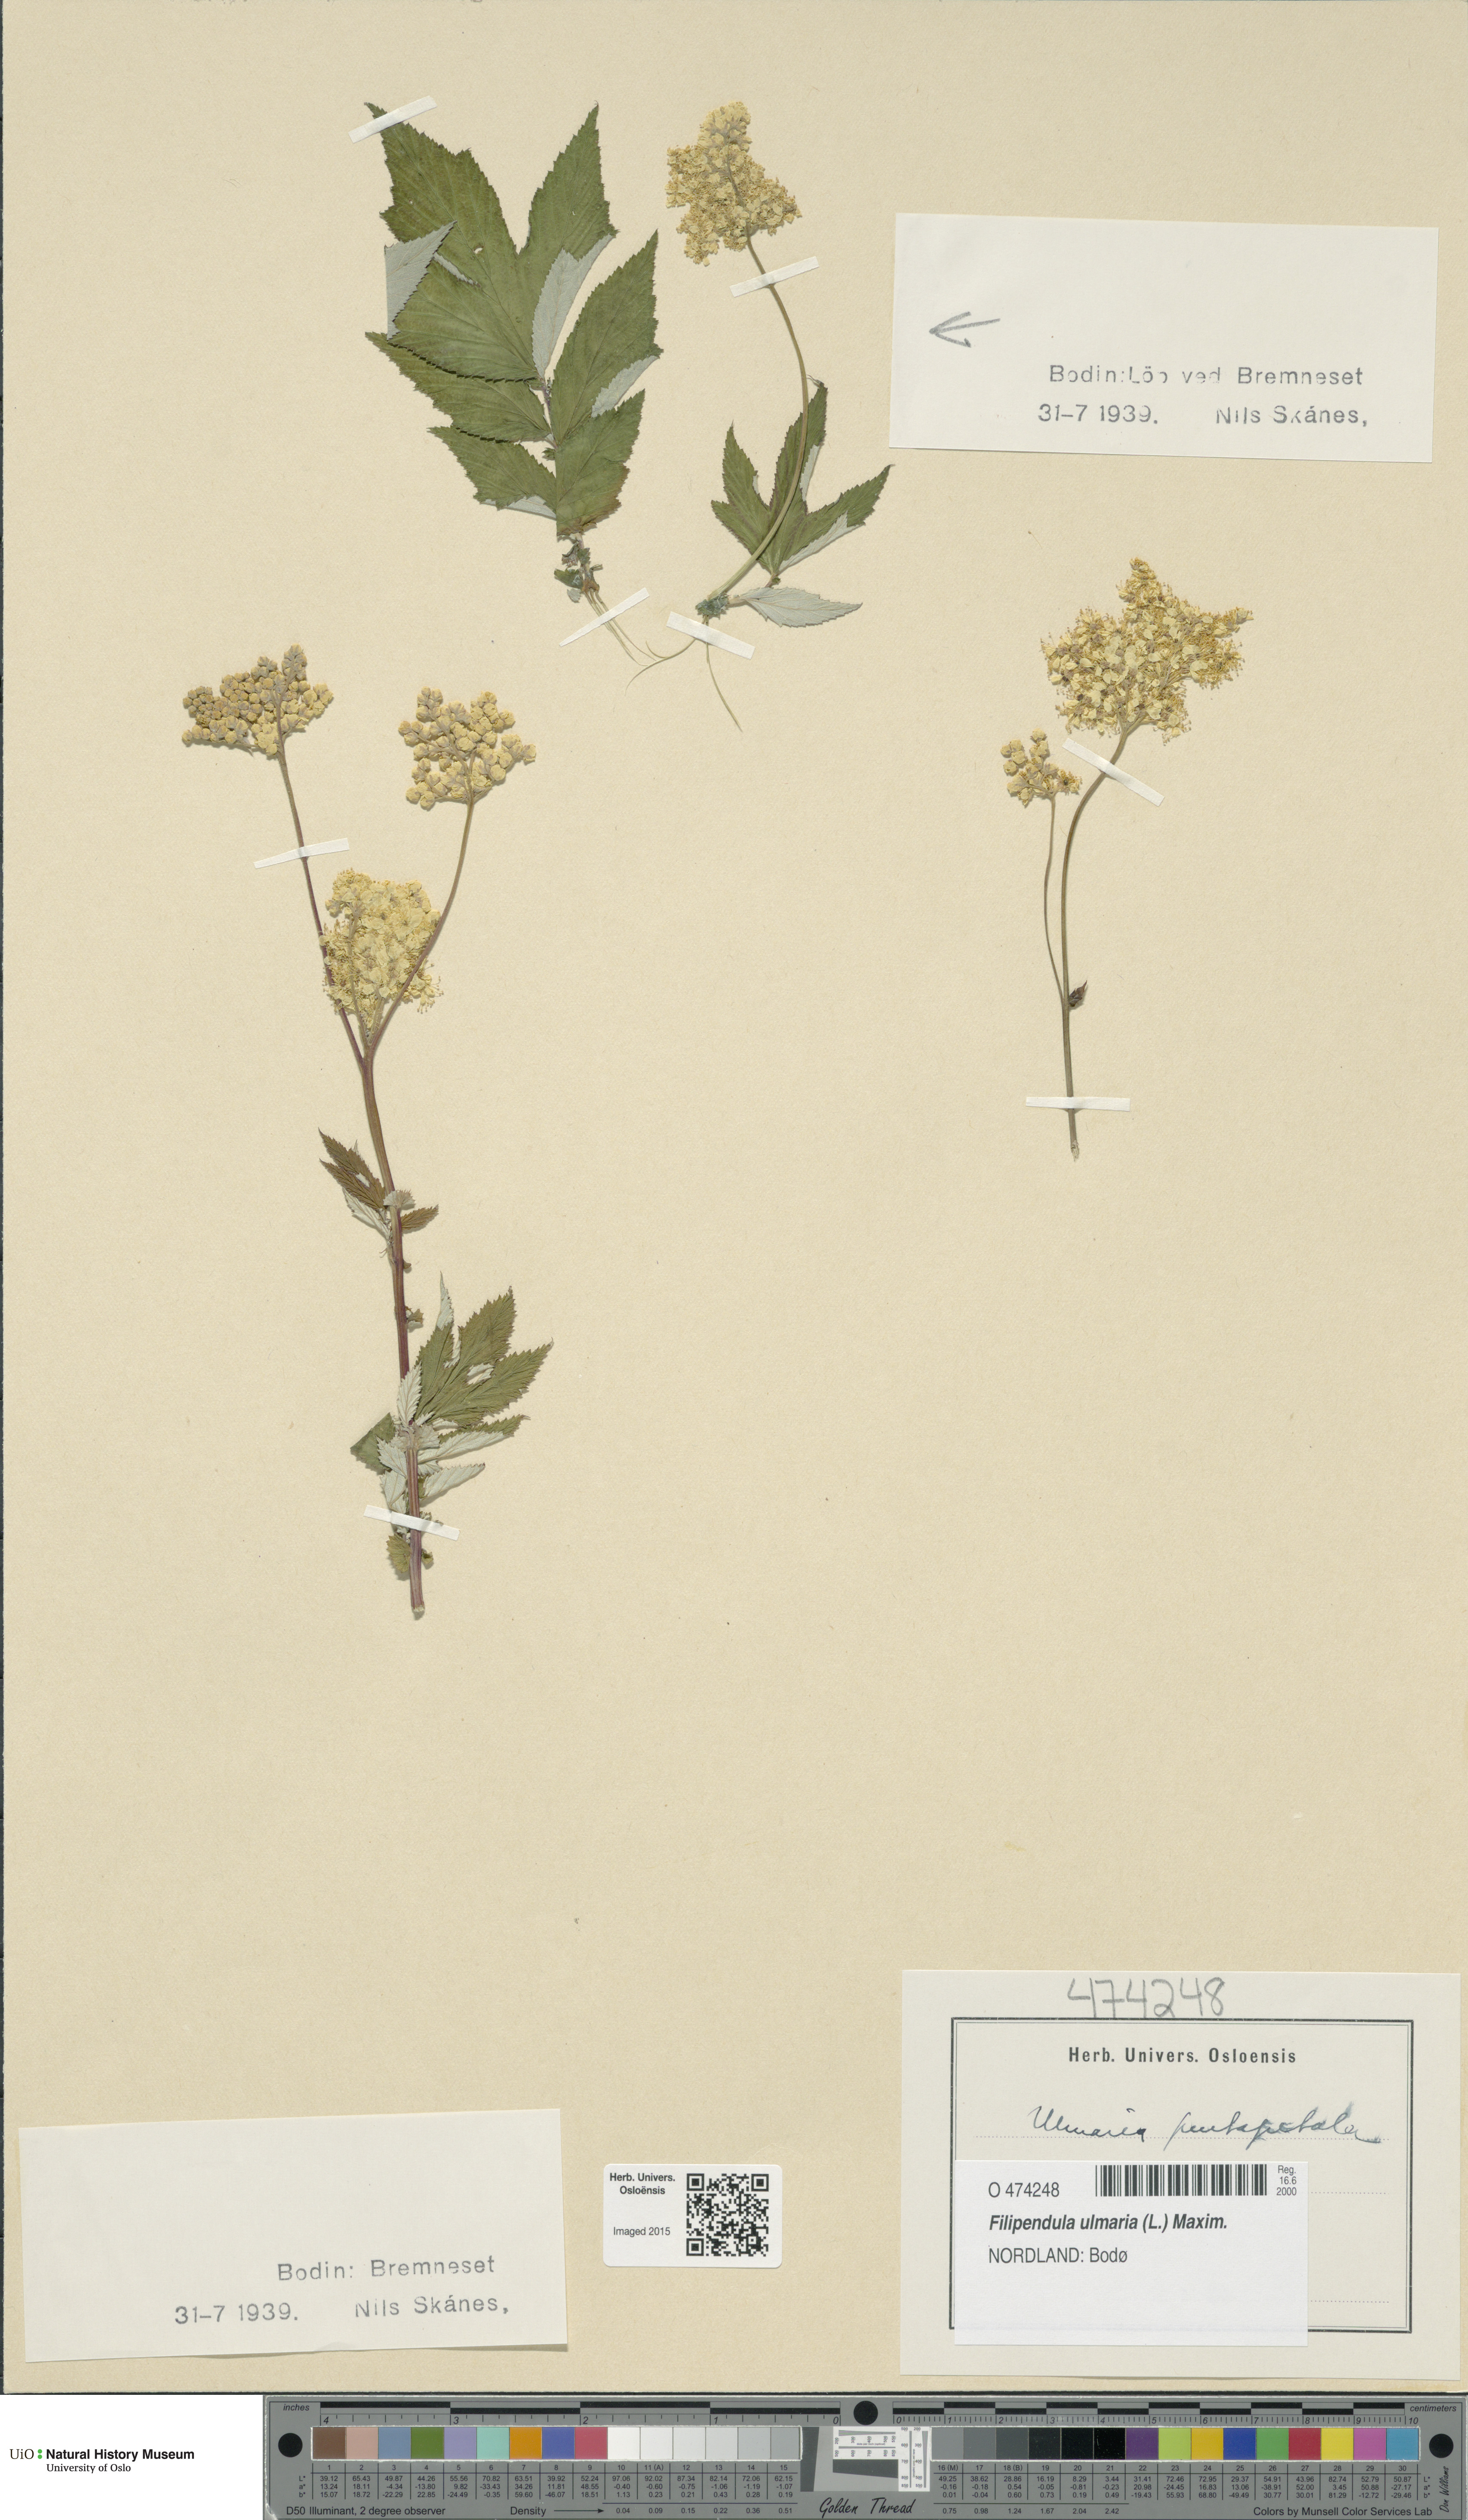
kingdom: Plantae
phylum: Tracheophyta
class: Magnoliopsida
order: Rosales
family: Rosaceae
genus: Filipendula
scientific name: Filipendula ulmaria
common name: Meadowsweet
